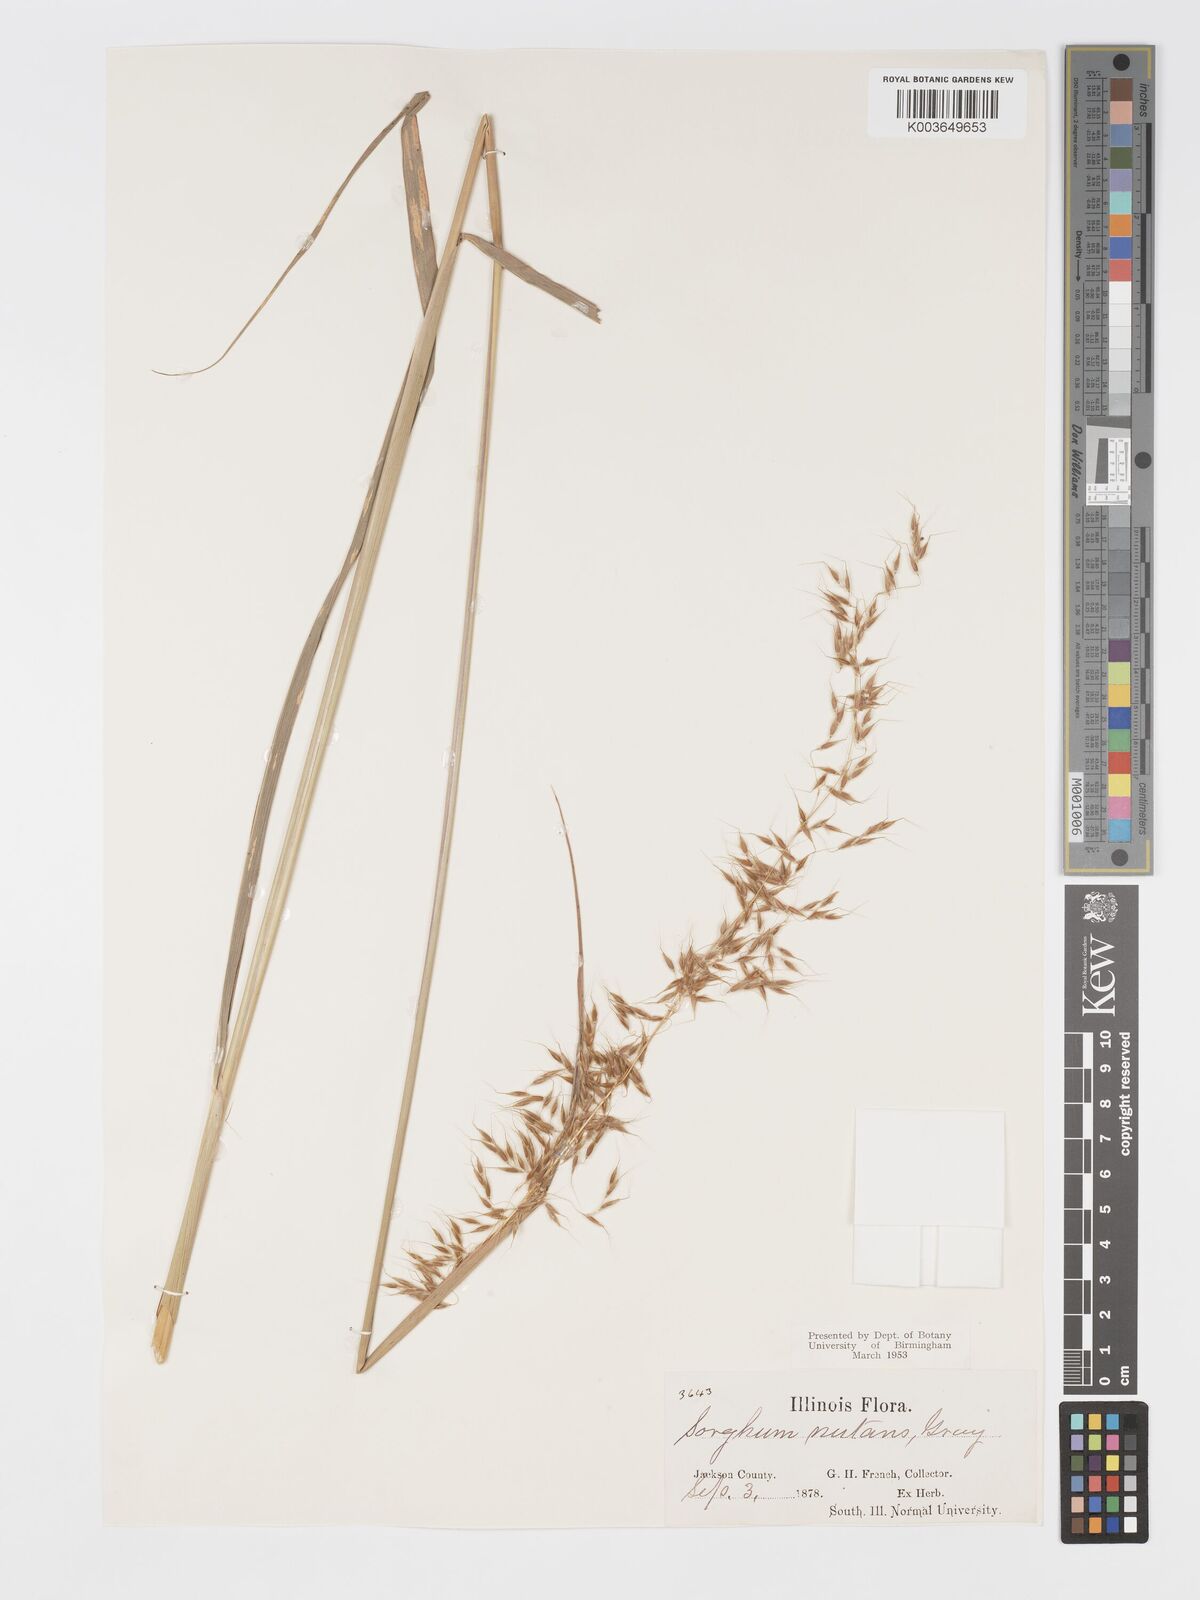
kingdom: Plantae
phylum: Tracheophyta
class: Liliopsida
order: Poales
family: Poaceae
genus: Sorghastrum
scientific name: Sorghastrum nutans
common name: Indian grass
